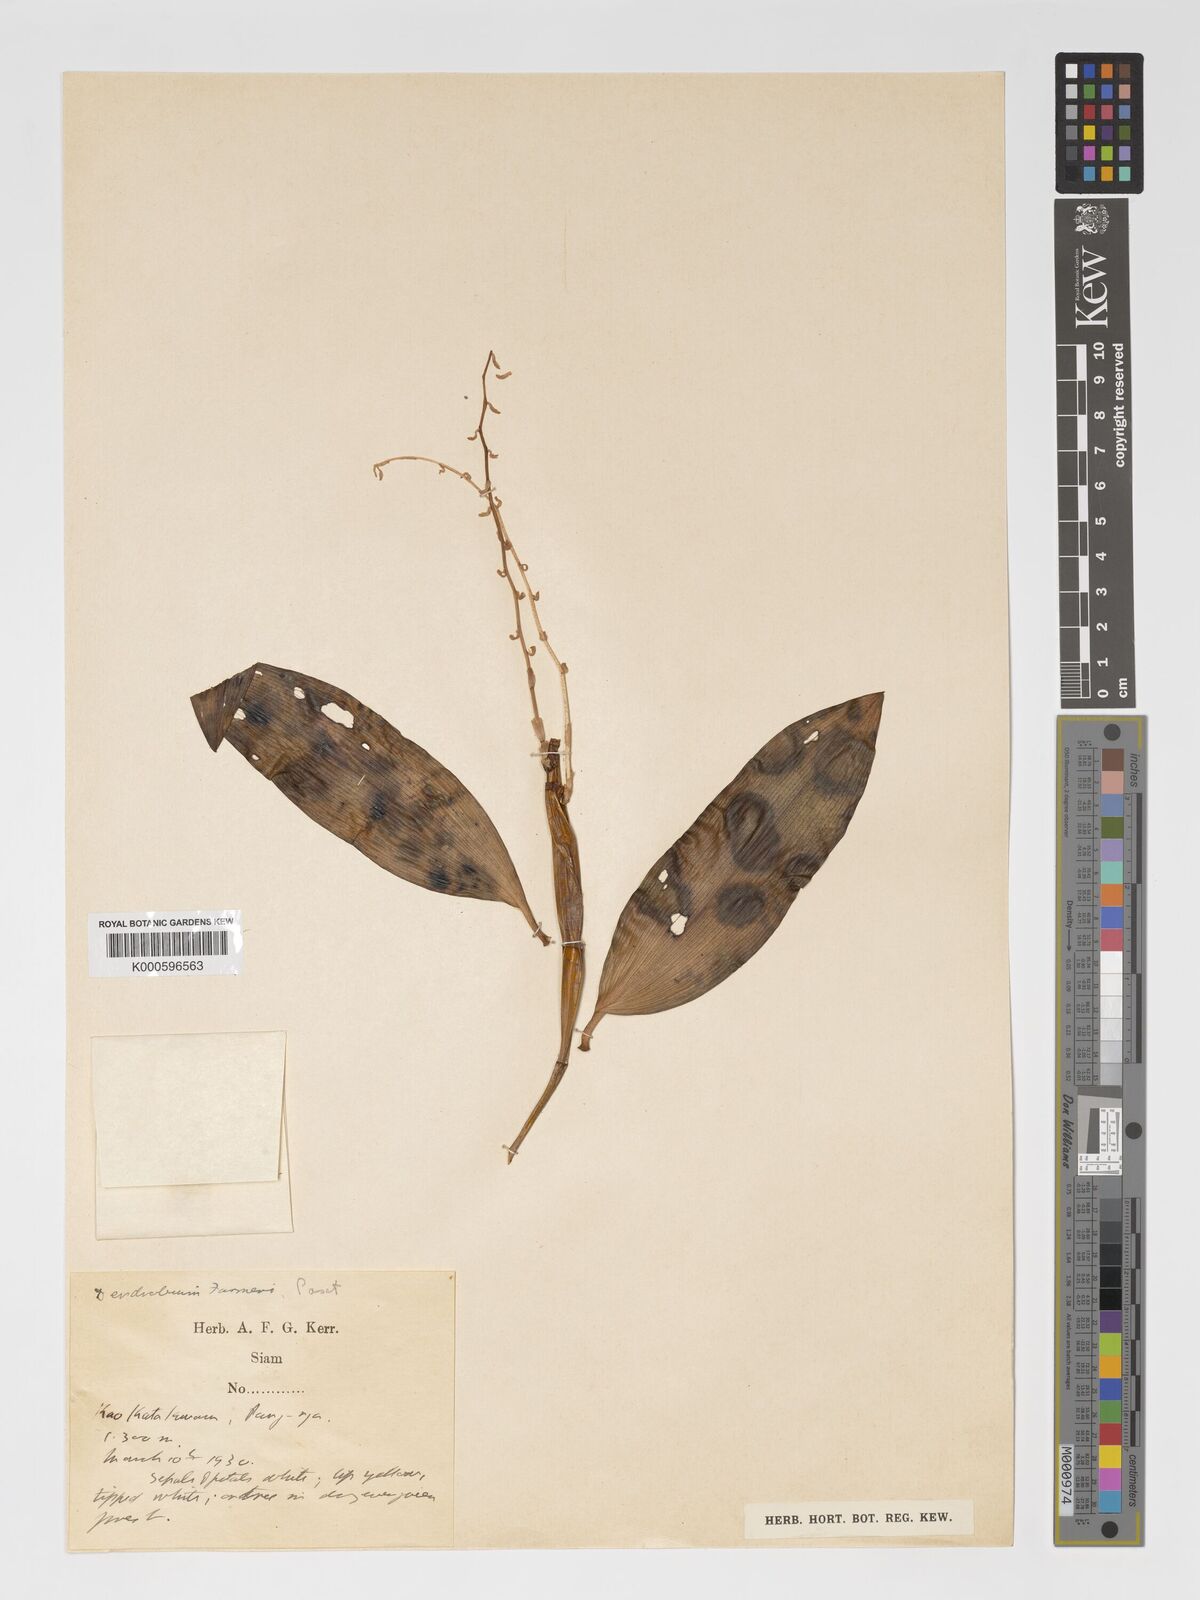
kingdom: Plantae
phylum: Tracheophyta
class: Liliopsida
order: Asparagales
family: Orchidaceae
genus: Dendrobium
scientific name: Dendrobium farmeri
